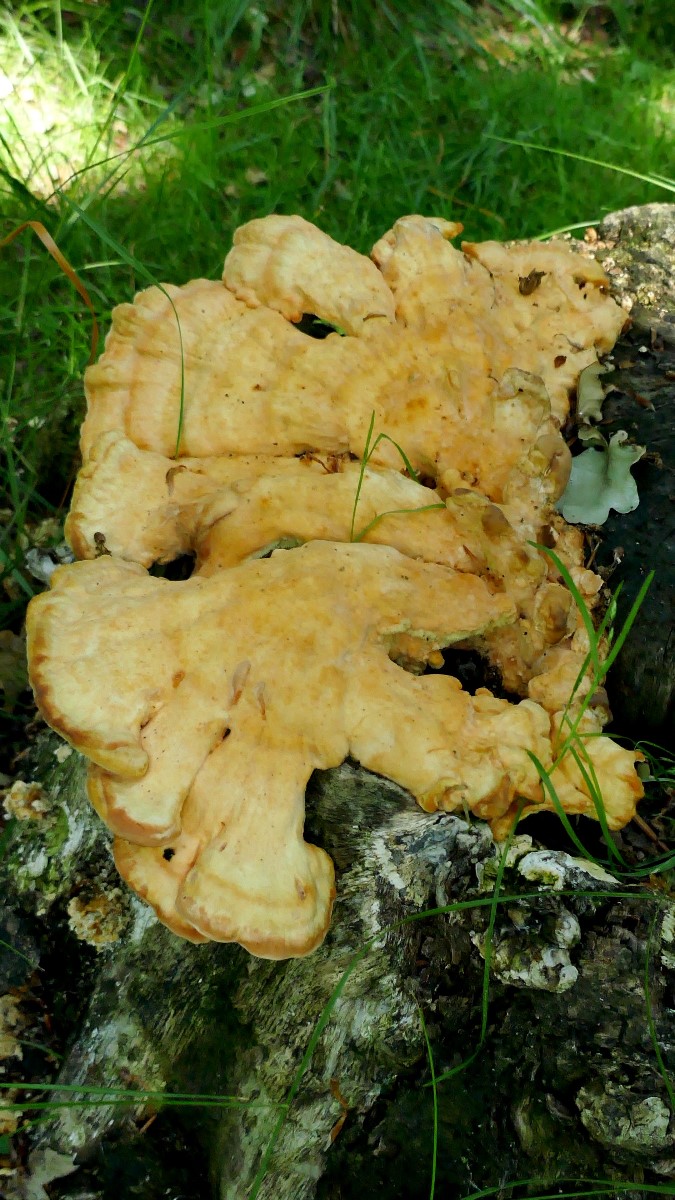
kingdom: Fungi
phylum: Basidiomycota
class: Agaricomycetes
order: Polyporales
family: Laetiporaceae
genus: Laetiporus
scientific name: Laetiporus sulphureus
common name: svovlporesvamp
